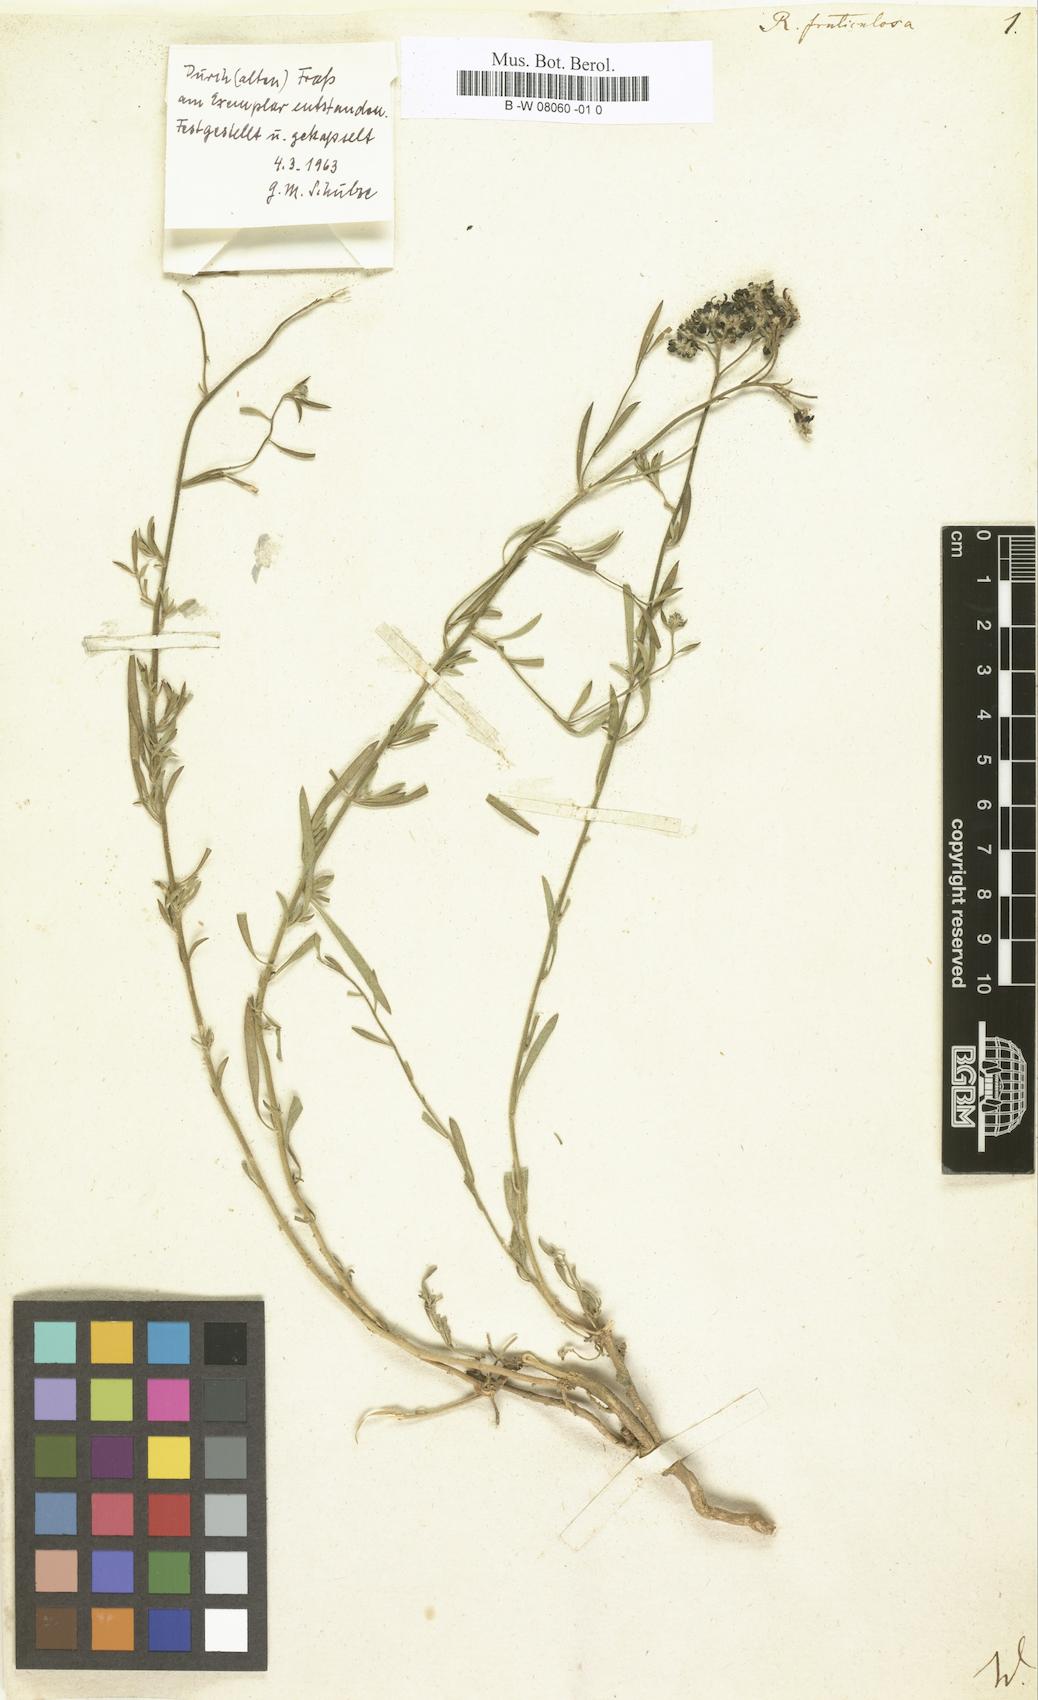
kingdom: Plantae
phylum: Tracheophyta
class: Magnoliopsida
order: Sapindales
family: Rutaceae
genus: Haplophyllum
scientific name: Haplophyllum fruticulosum
